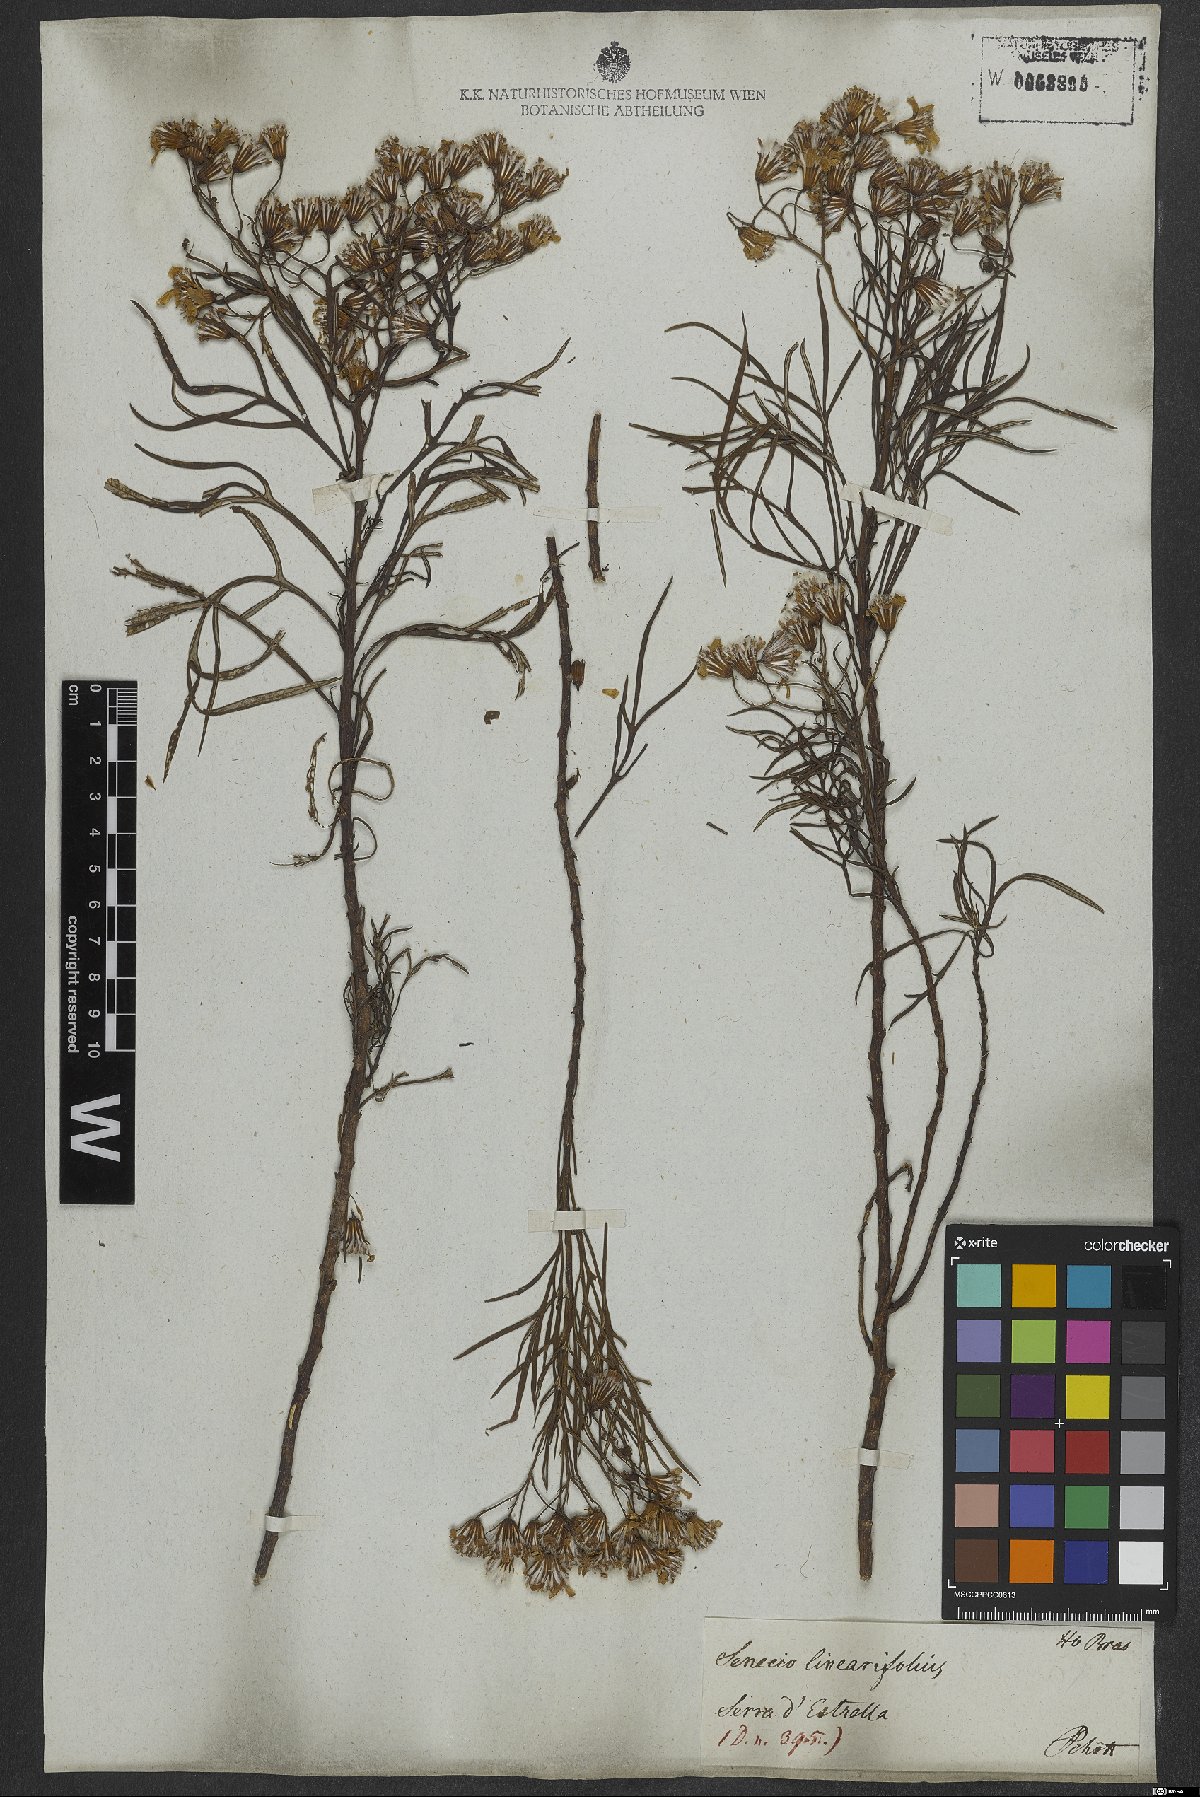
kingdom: Plantae
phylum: Tracheophyta
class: Magnoliopsida
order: Asterales
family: Asteraceae
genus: Senecio
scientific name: Senecio brasiliensis
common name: Hemp-leaf ragwort
